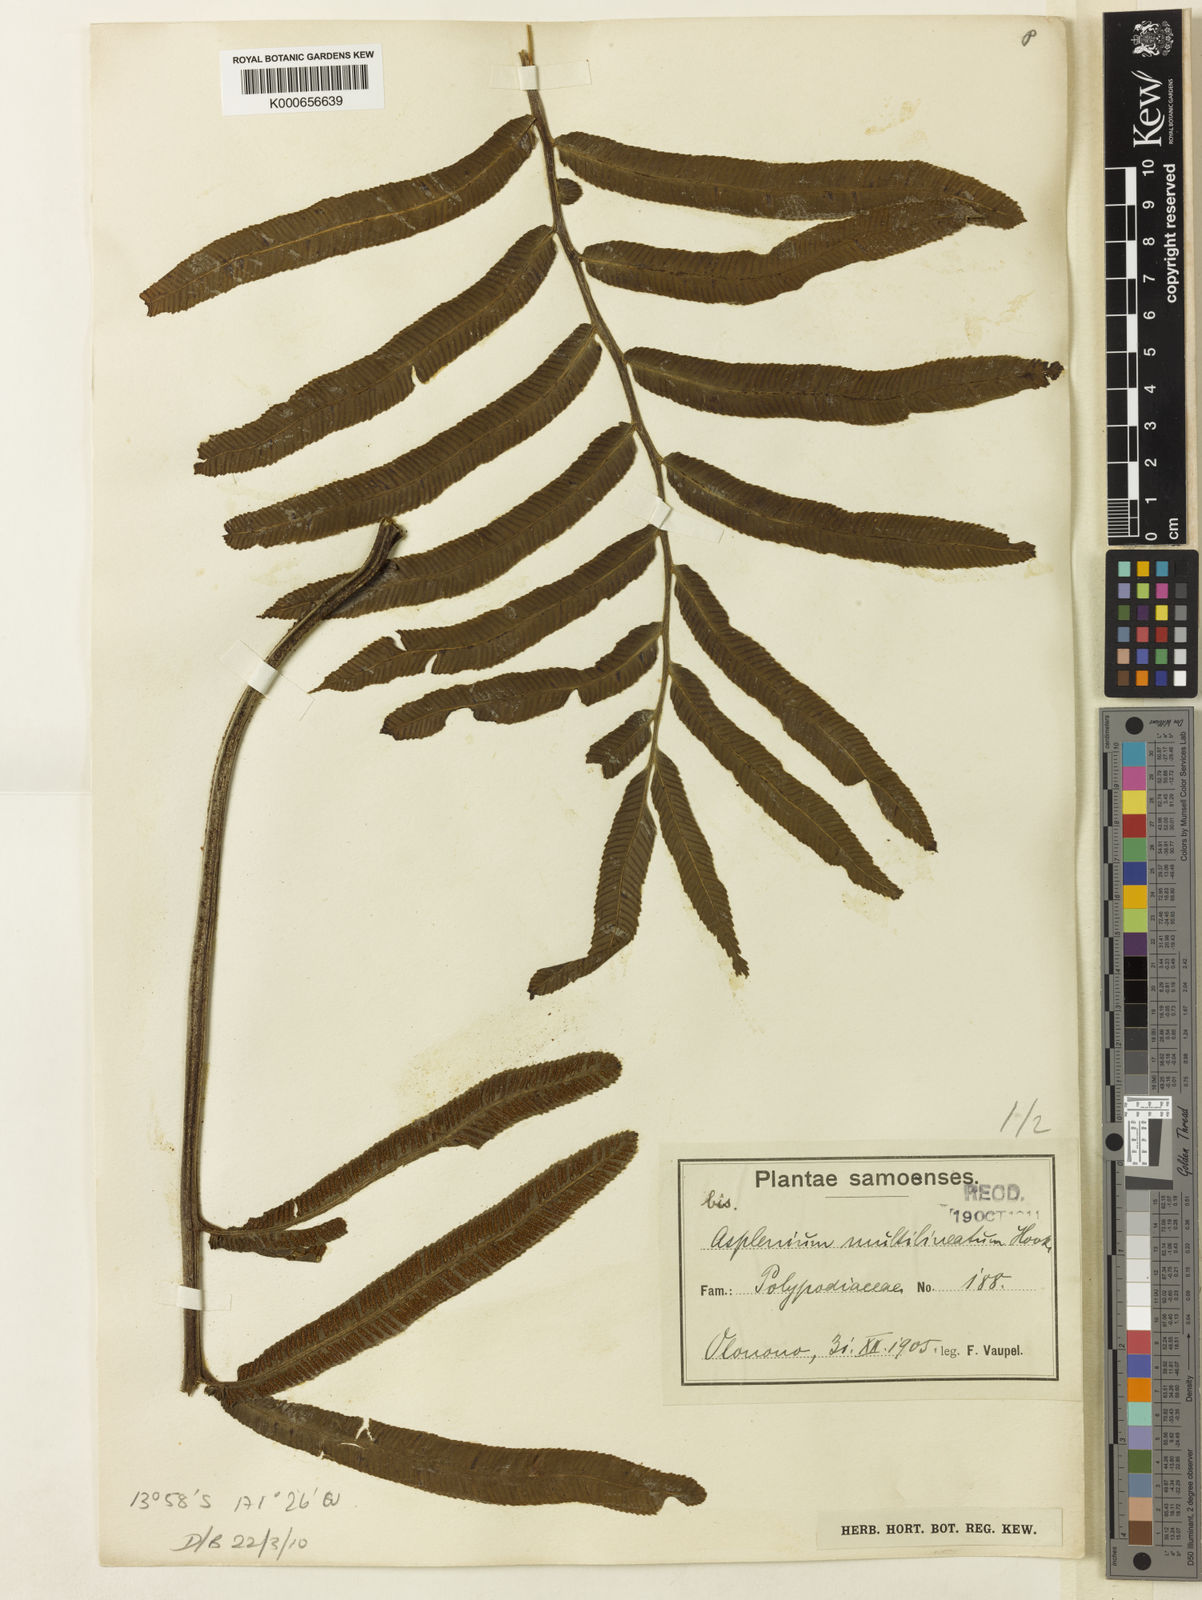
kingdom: Plantae
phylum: Tracheophyta
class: Polypodiopsida
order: Polypodiales
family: Aspleniaceae
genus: Asplenium
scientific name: Asplenium marattioides
